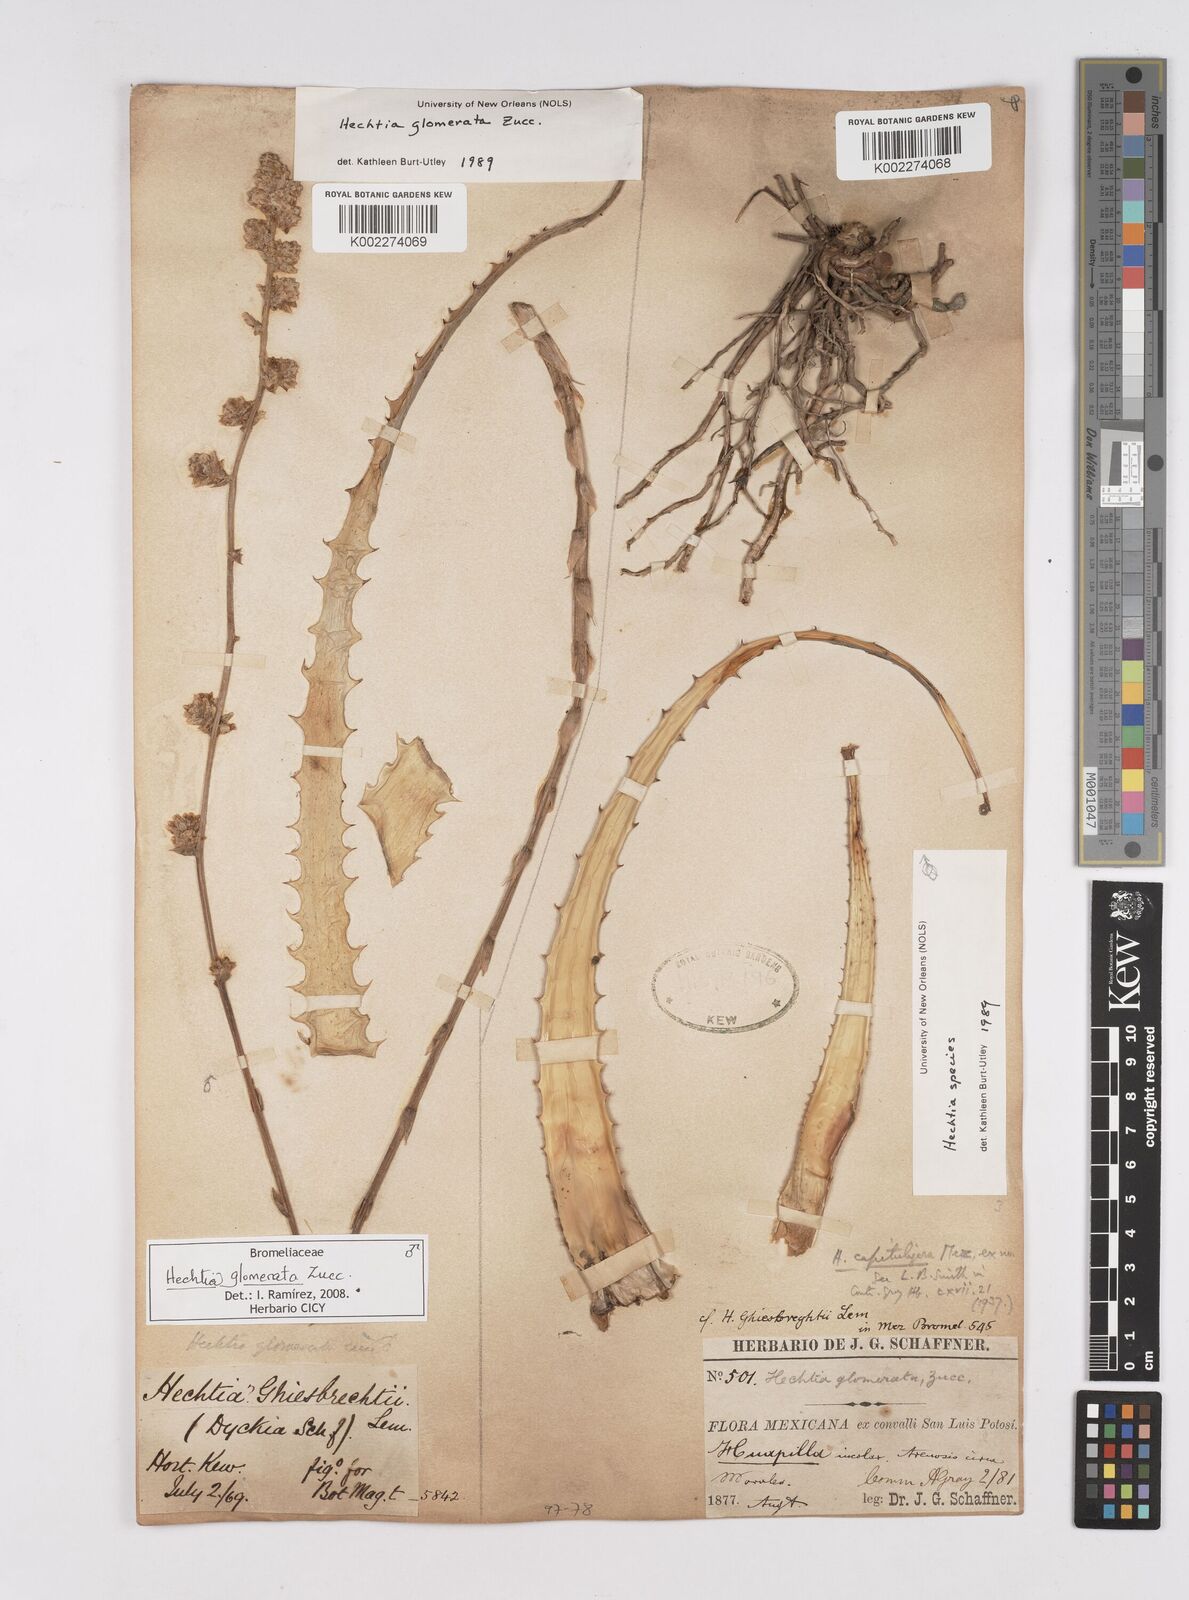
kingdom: Plantae
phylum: Tracheophyta
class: Liliopsida
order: Poales
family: Bromeliaceae
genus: Hechtia
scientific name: Hechtia glomerata
